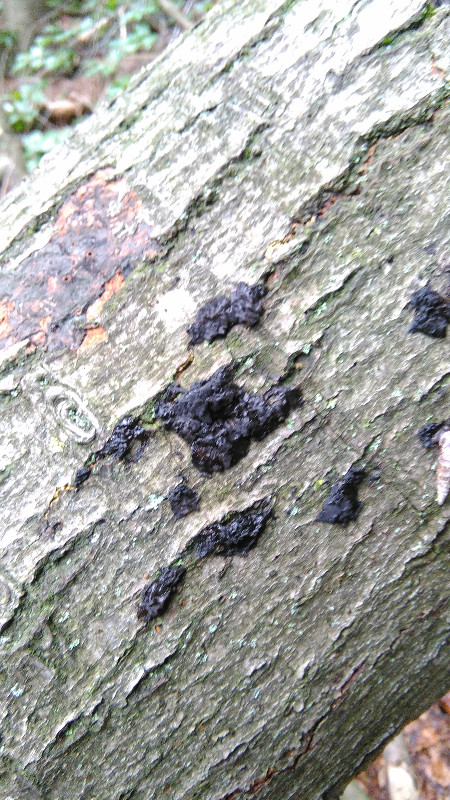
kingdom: Fungi
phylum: Basidiomycota
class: Agaricomycetes
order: Auriculariales
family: Auriculariaceae
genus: Exidia
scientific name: Exidia nigricans
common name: almindelig bævretop
